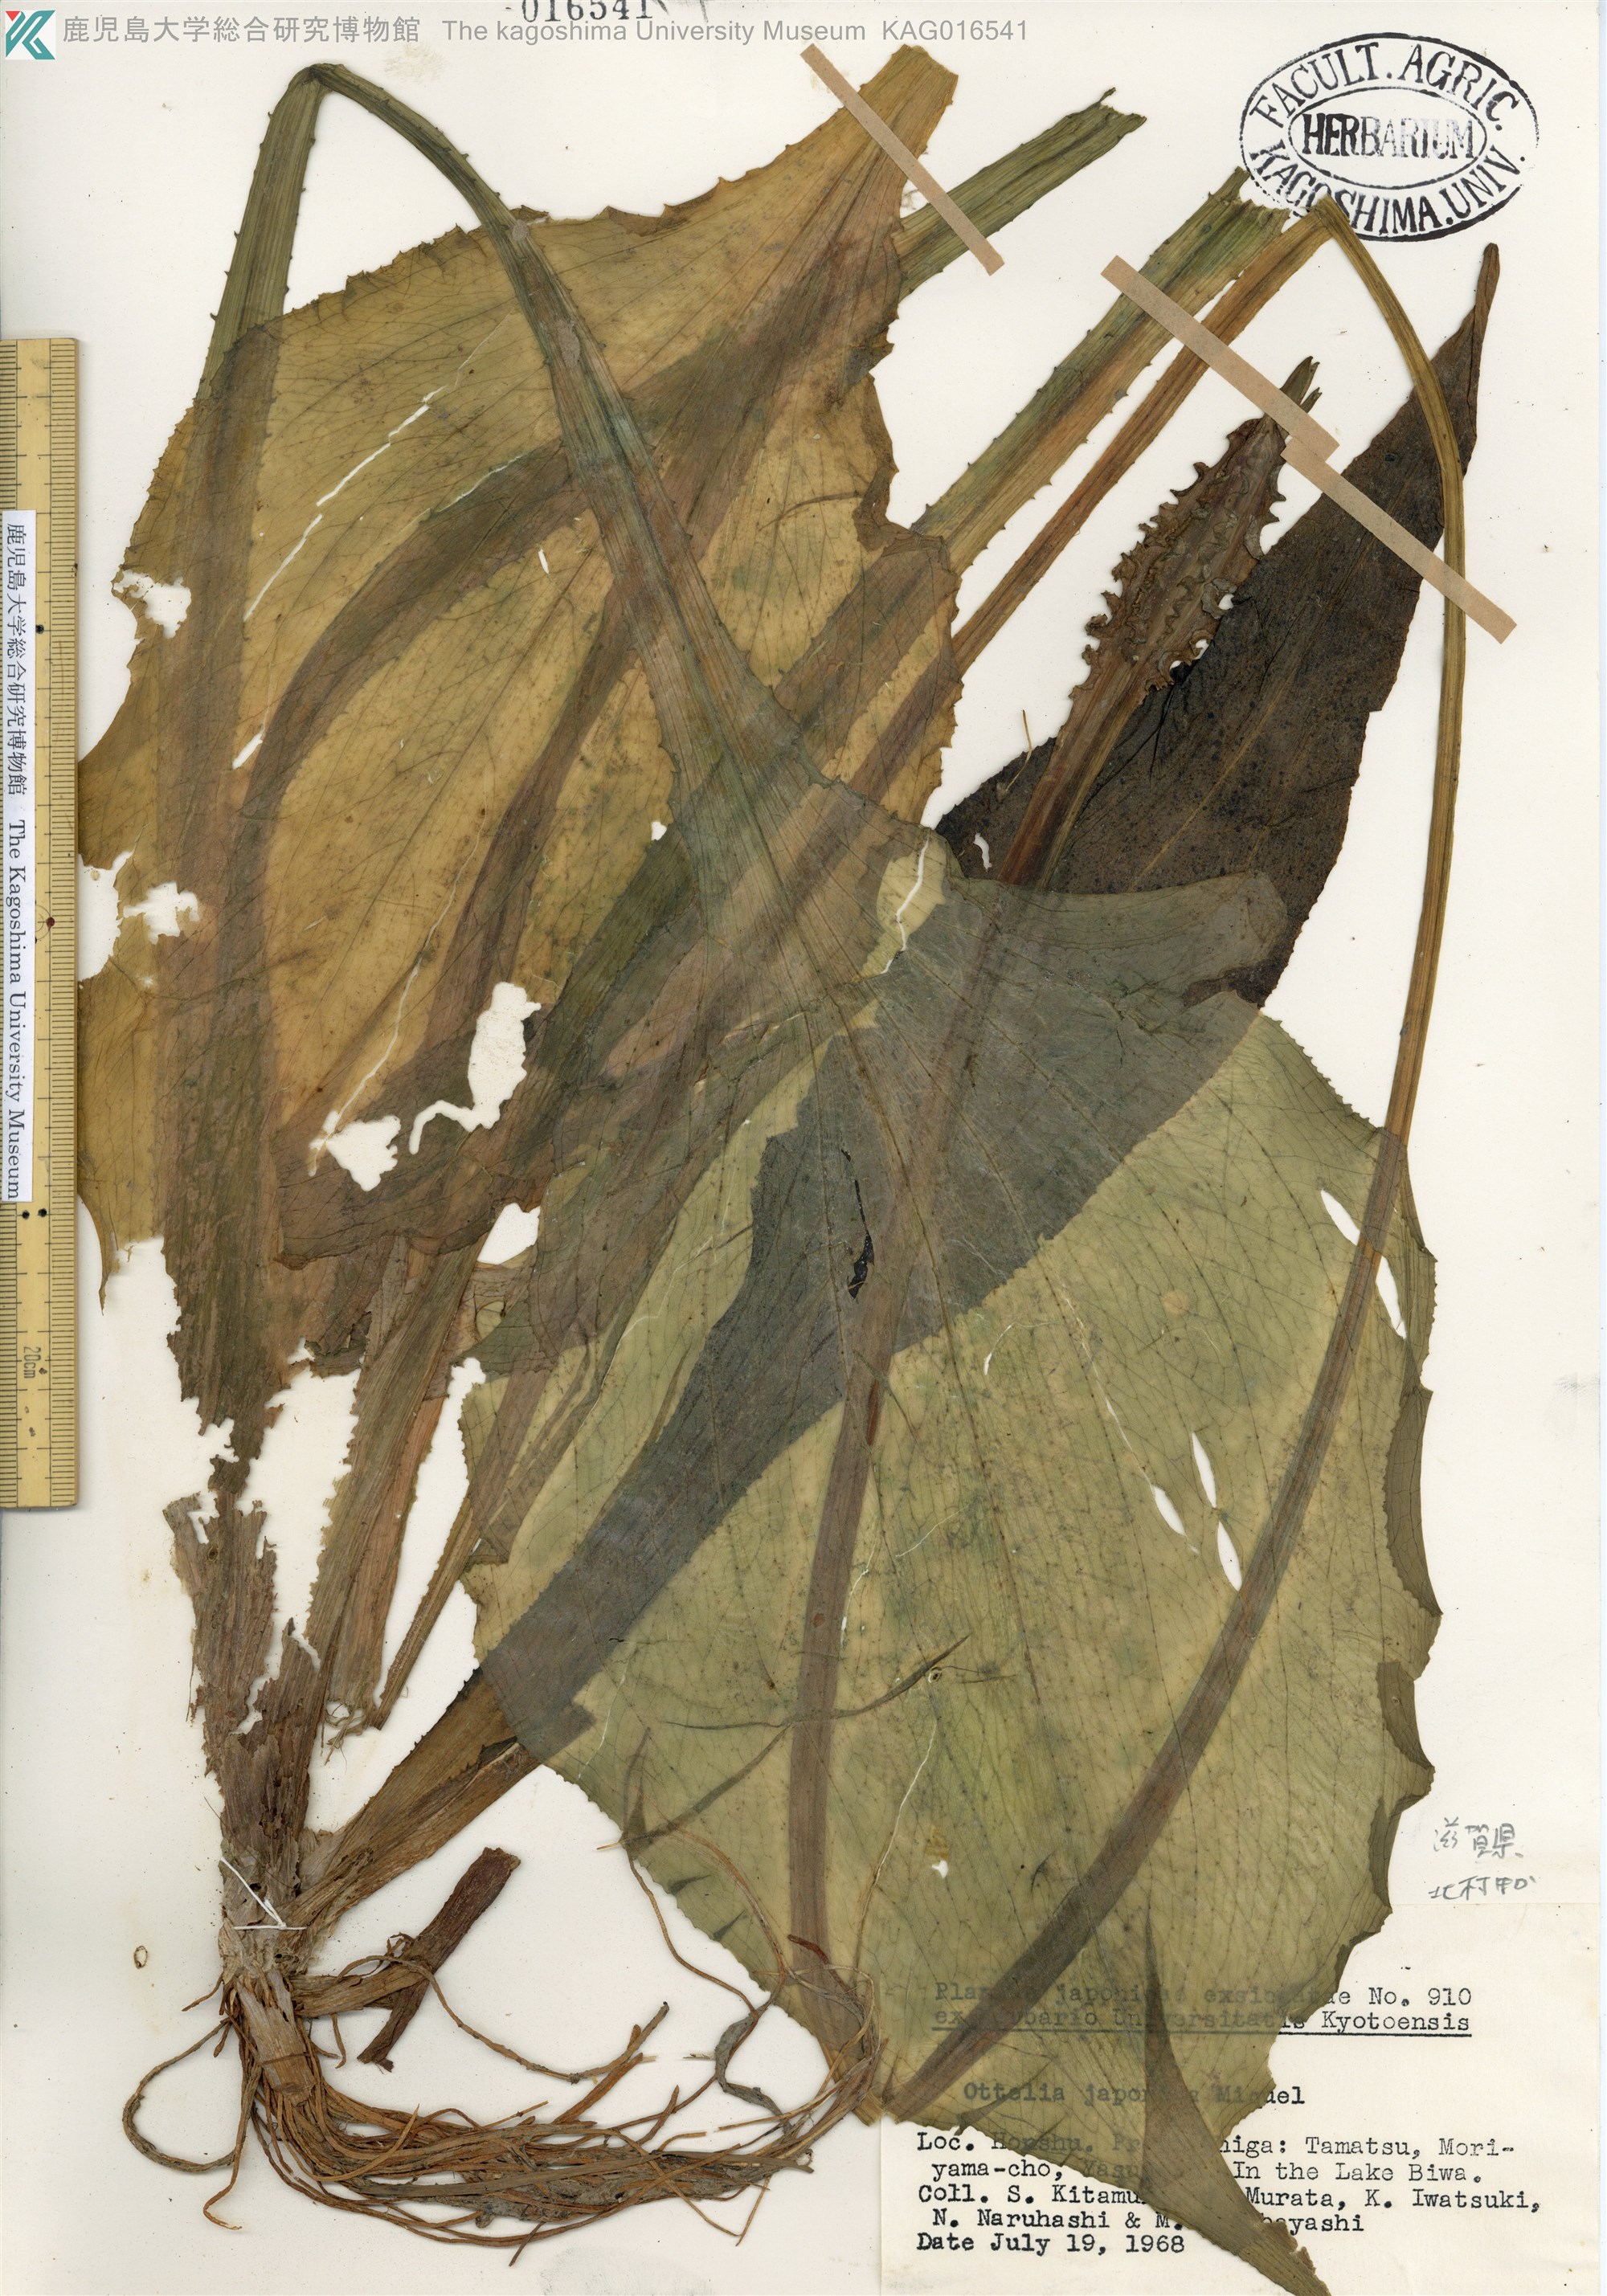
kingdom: Plantae
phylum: Tracheophyta
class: Liliopsida
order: Alismatales
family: Hydrocharitaceae
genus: Ottelia
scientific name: Ottelia alismoides
